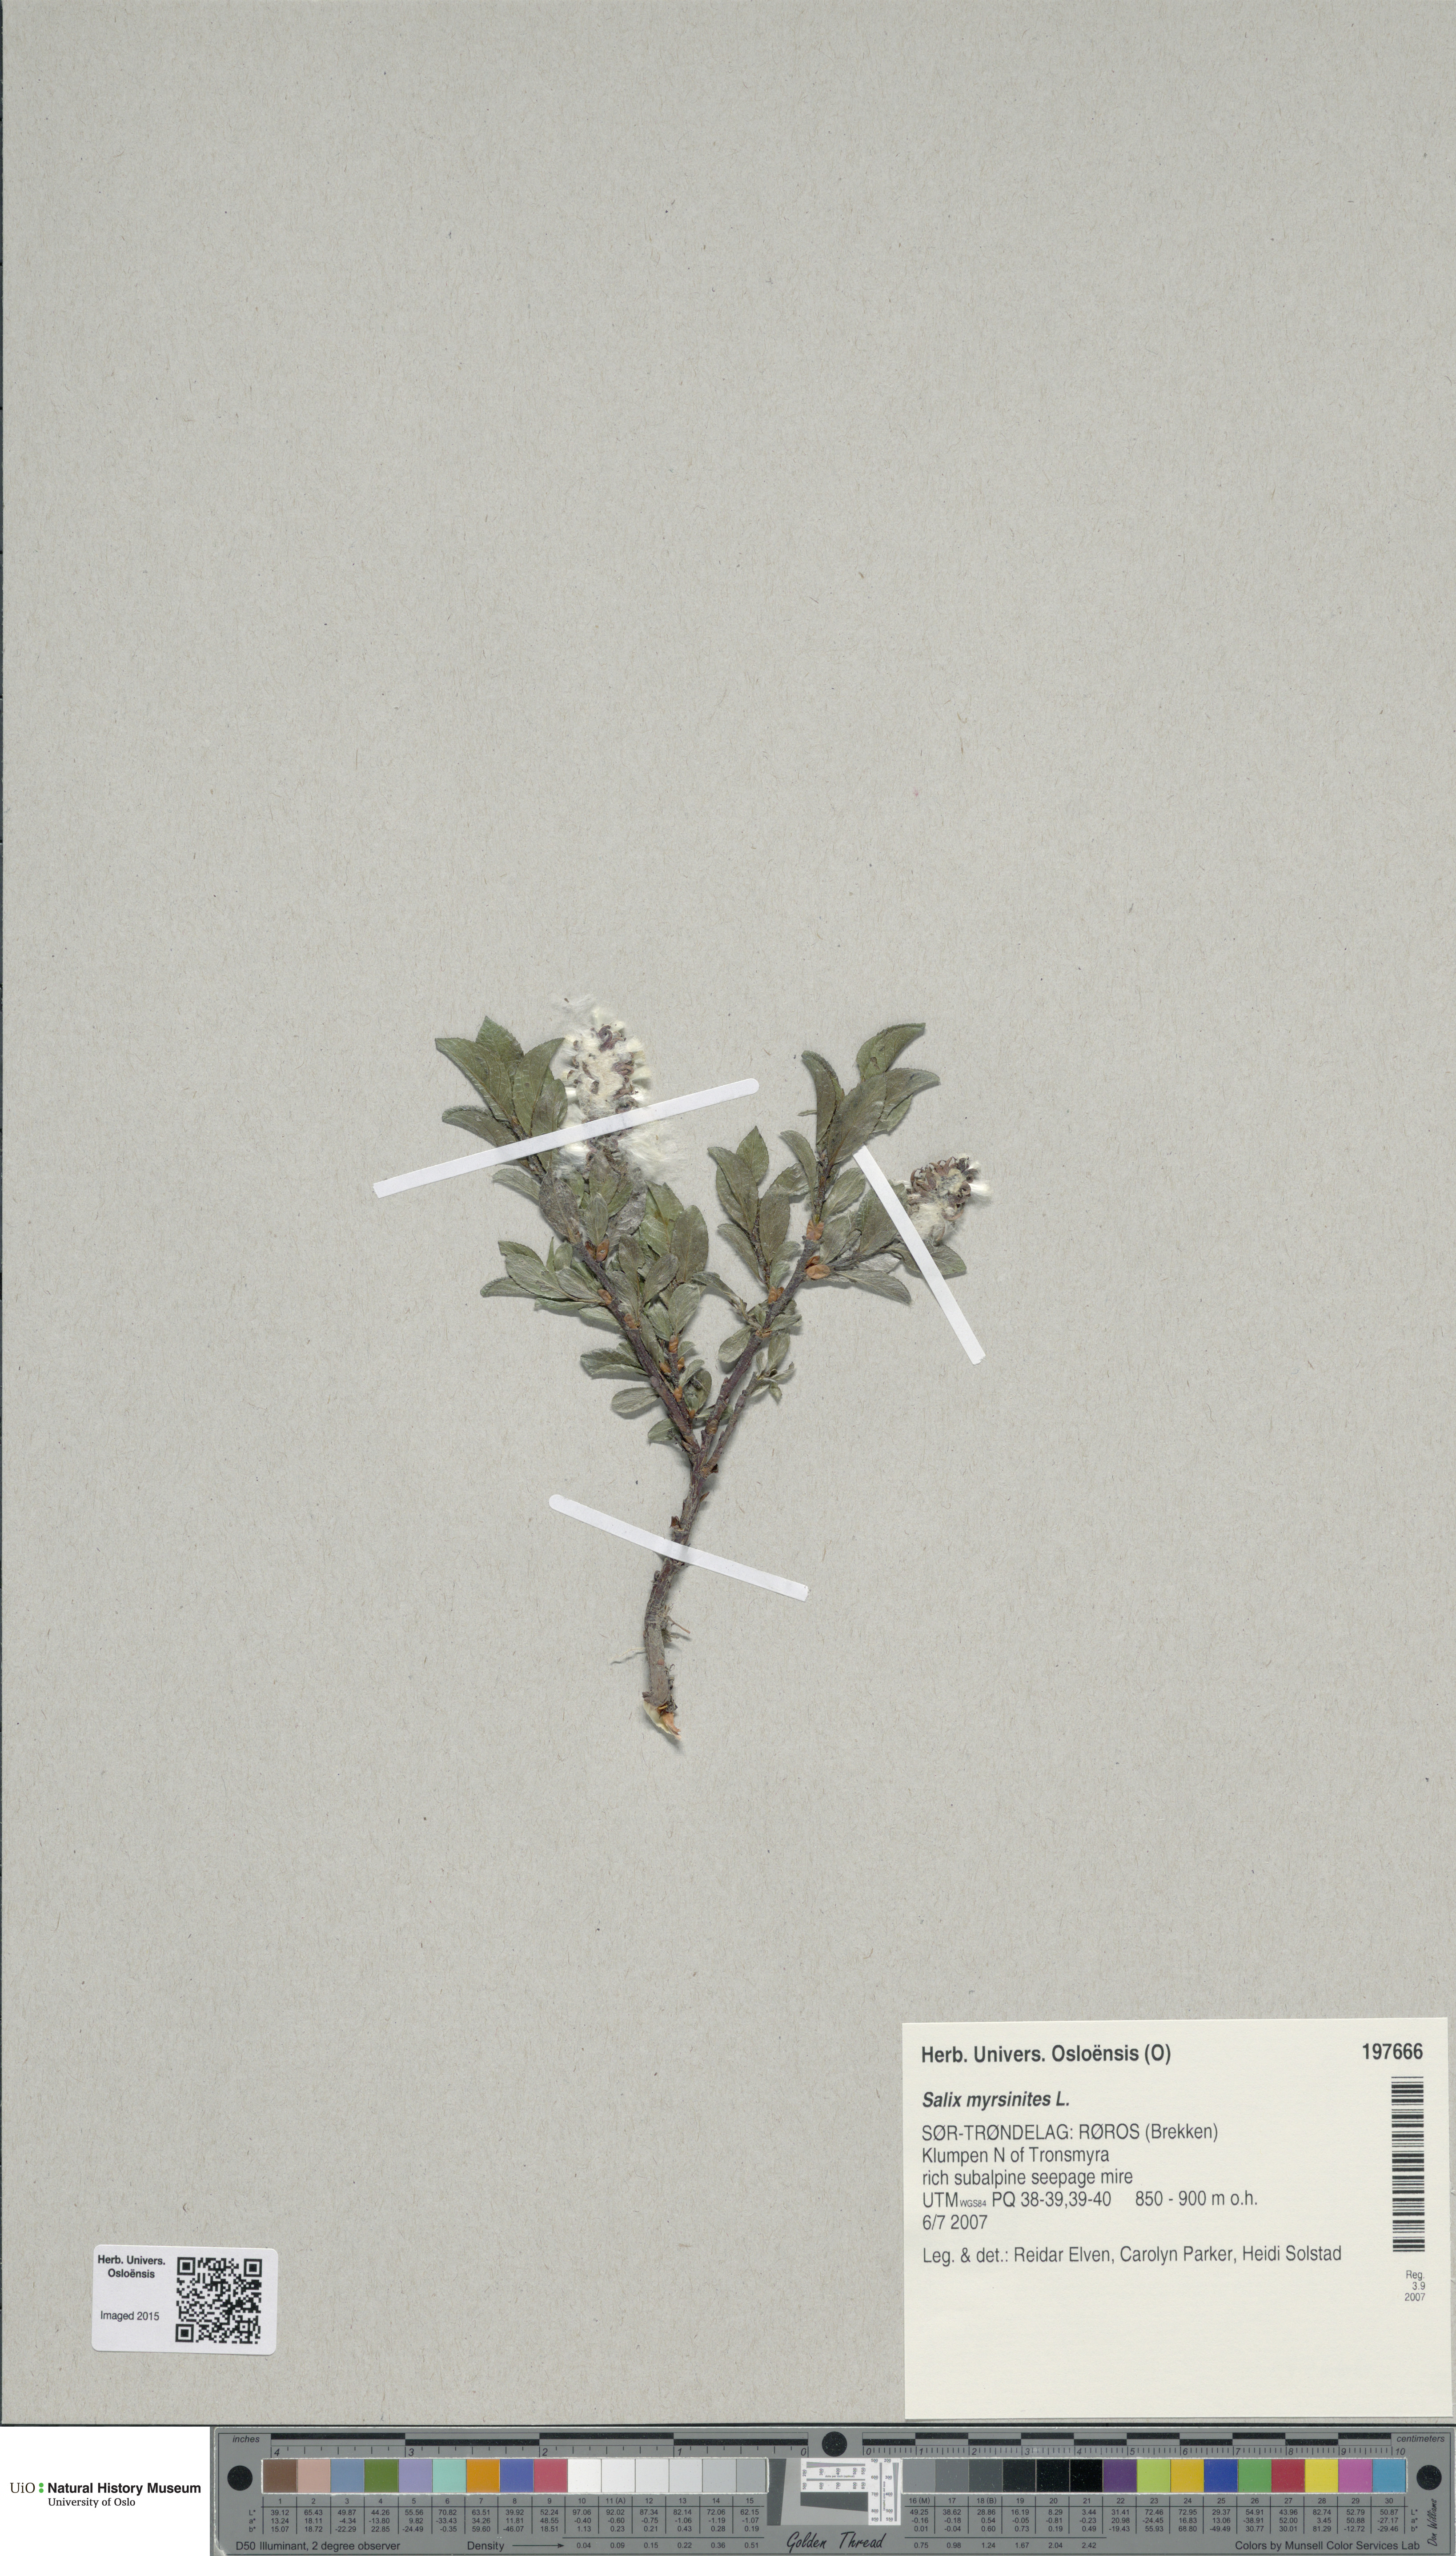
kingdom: Plantae
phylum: Tracheophyta
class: Magnoliopsida
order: Malpighiales
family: Salicaceae
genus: Salix
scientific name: Salix myrsinites
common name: Myrtle willow
